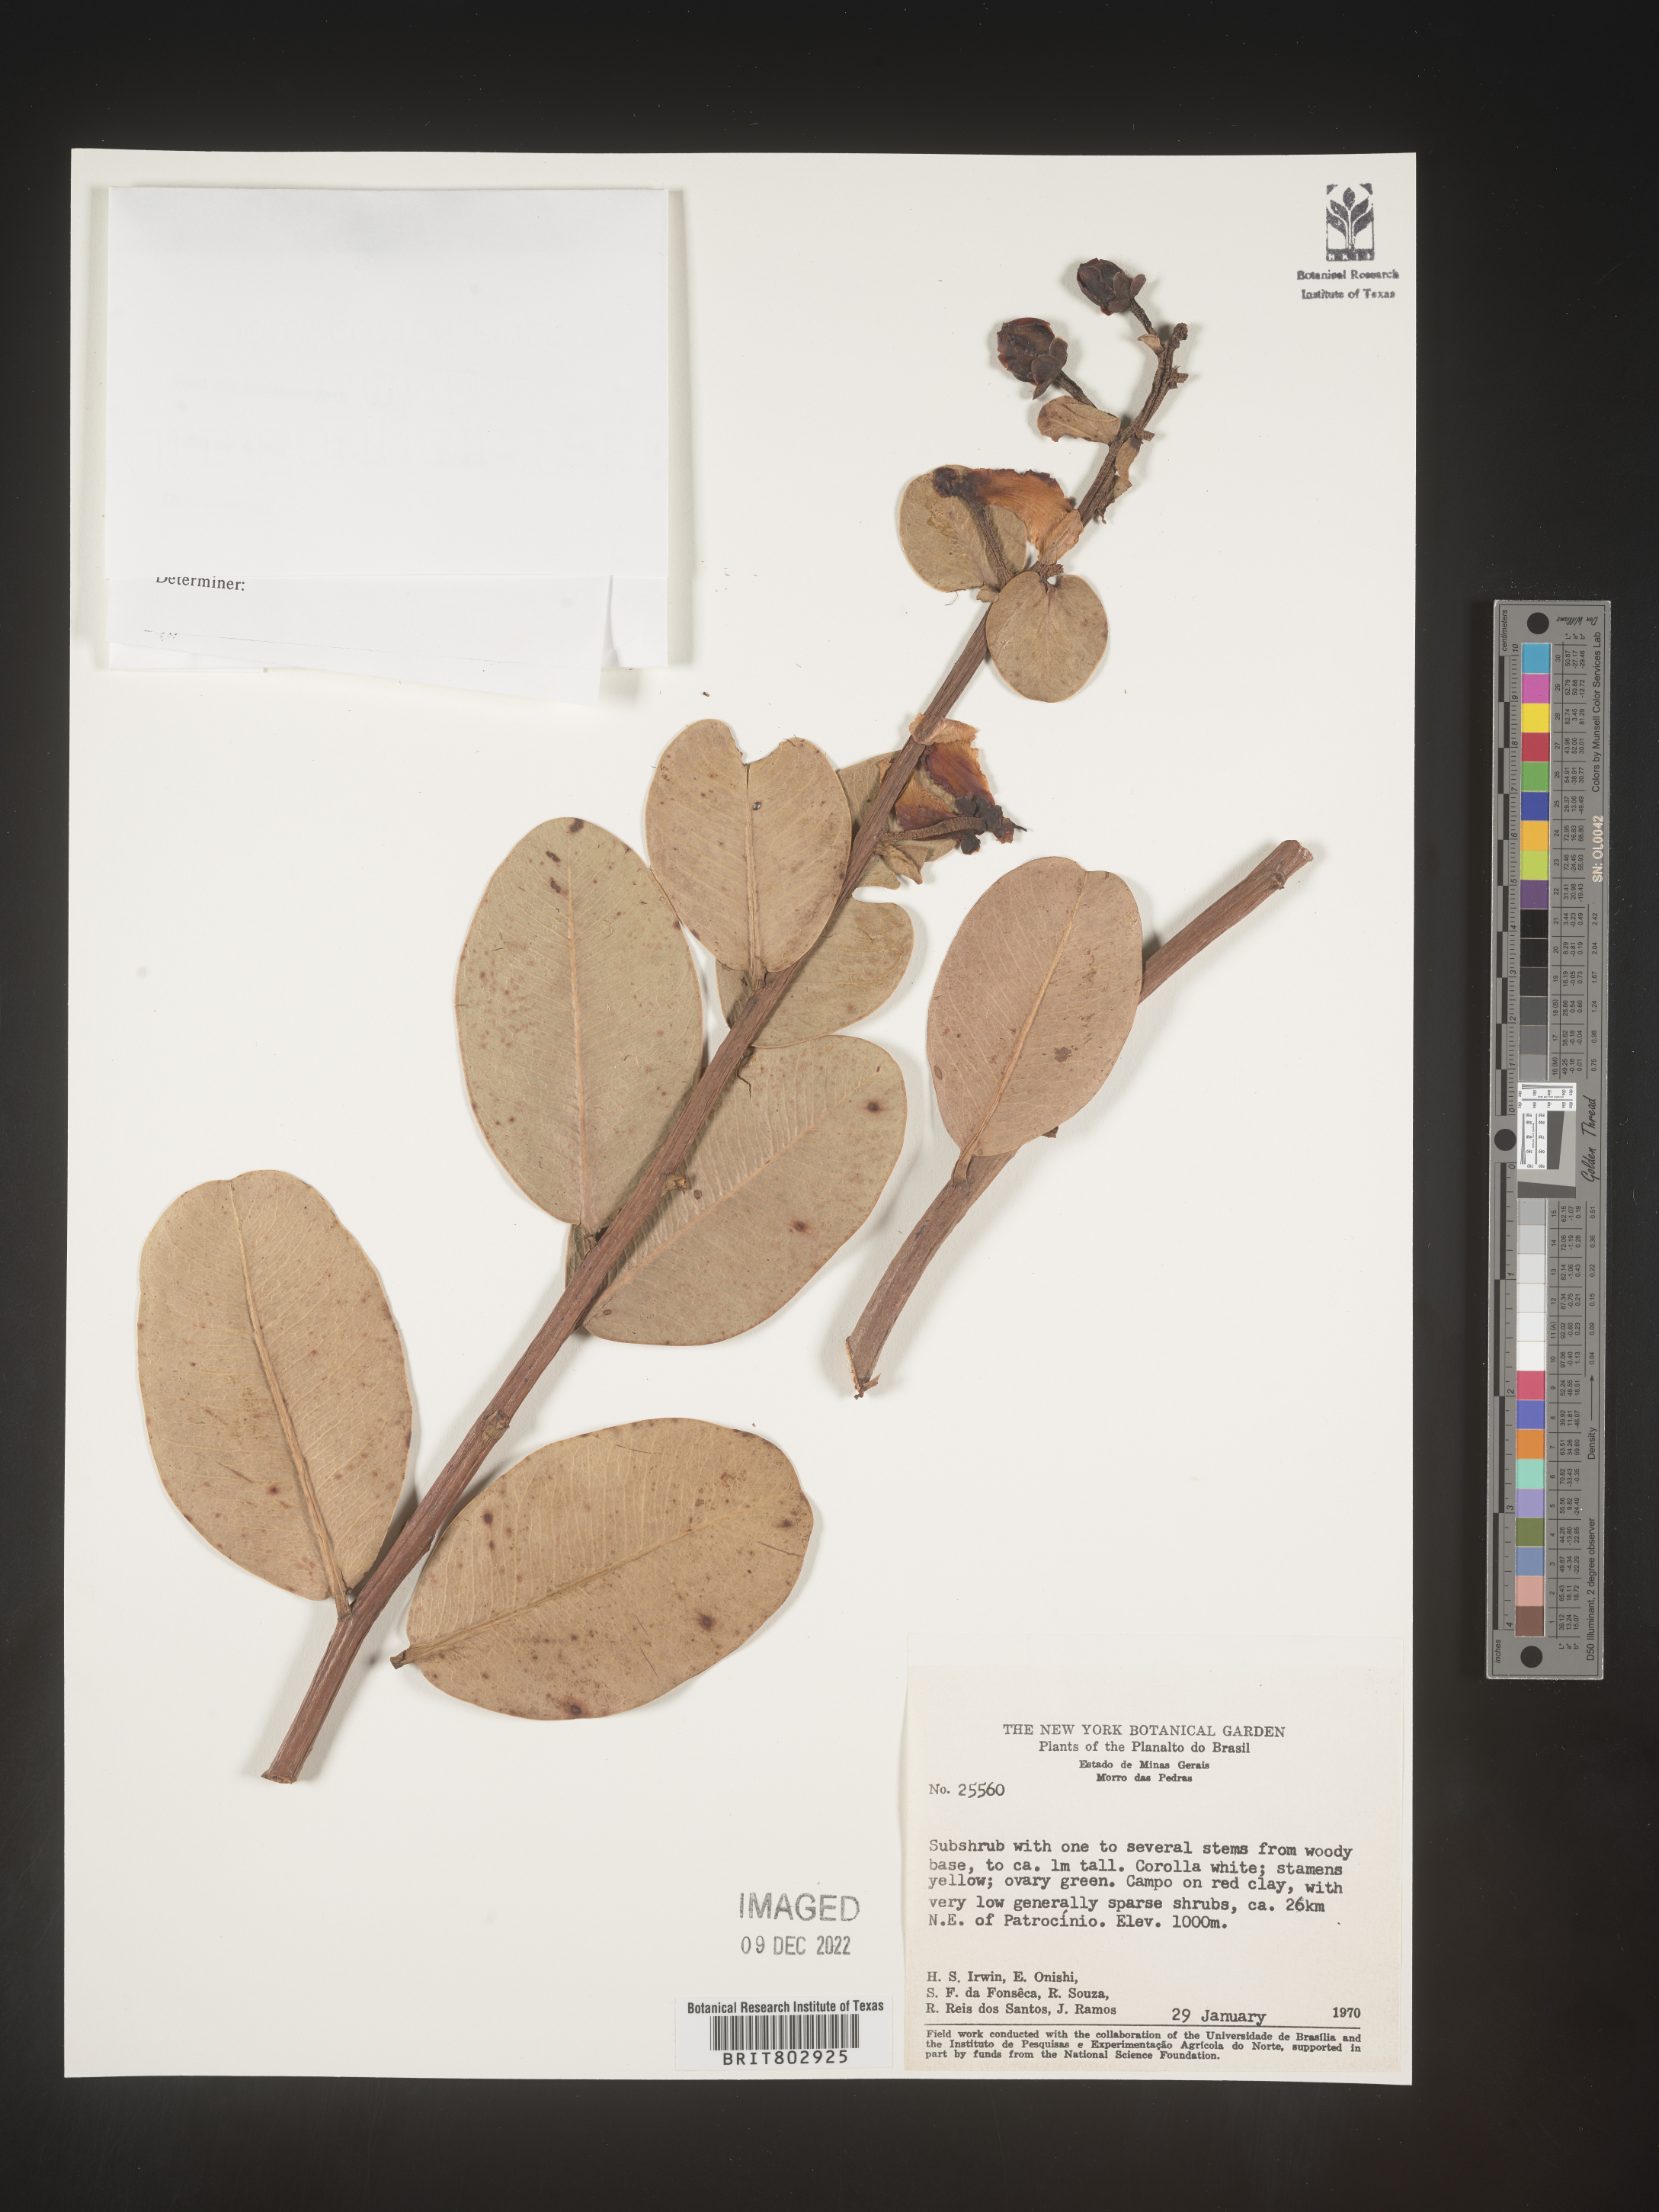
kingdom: Plantae
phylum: Tracheophyta
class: Magnoliopsida
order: Malpighiales
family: Calophyllaceae
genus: Kielmeyera
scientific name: Kielmeyera
